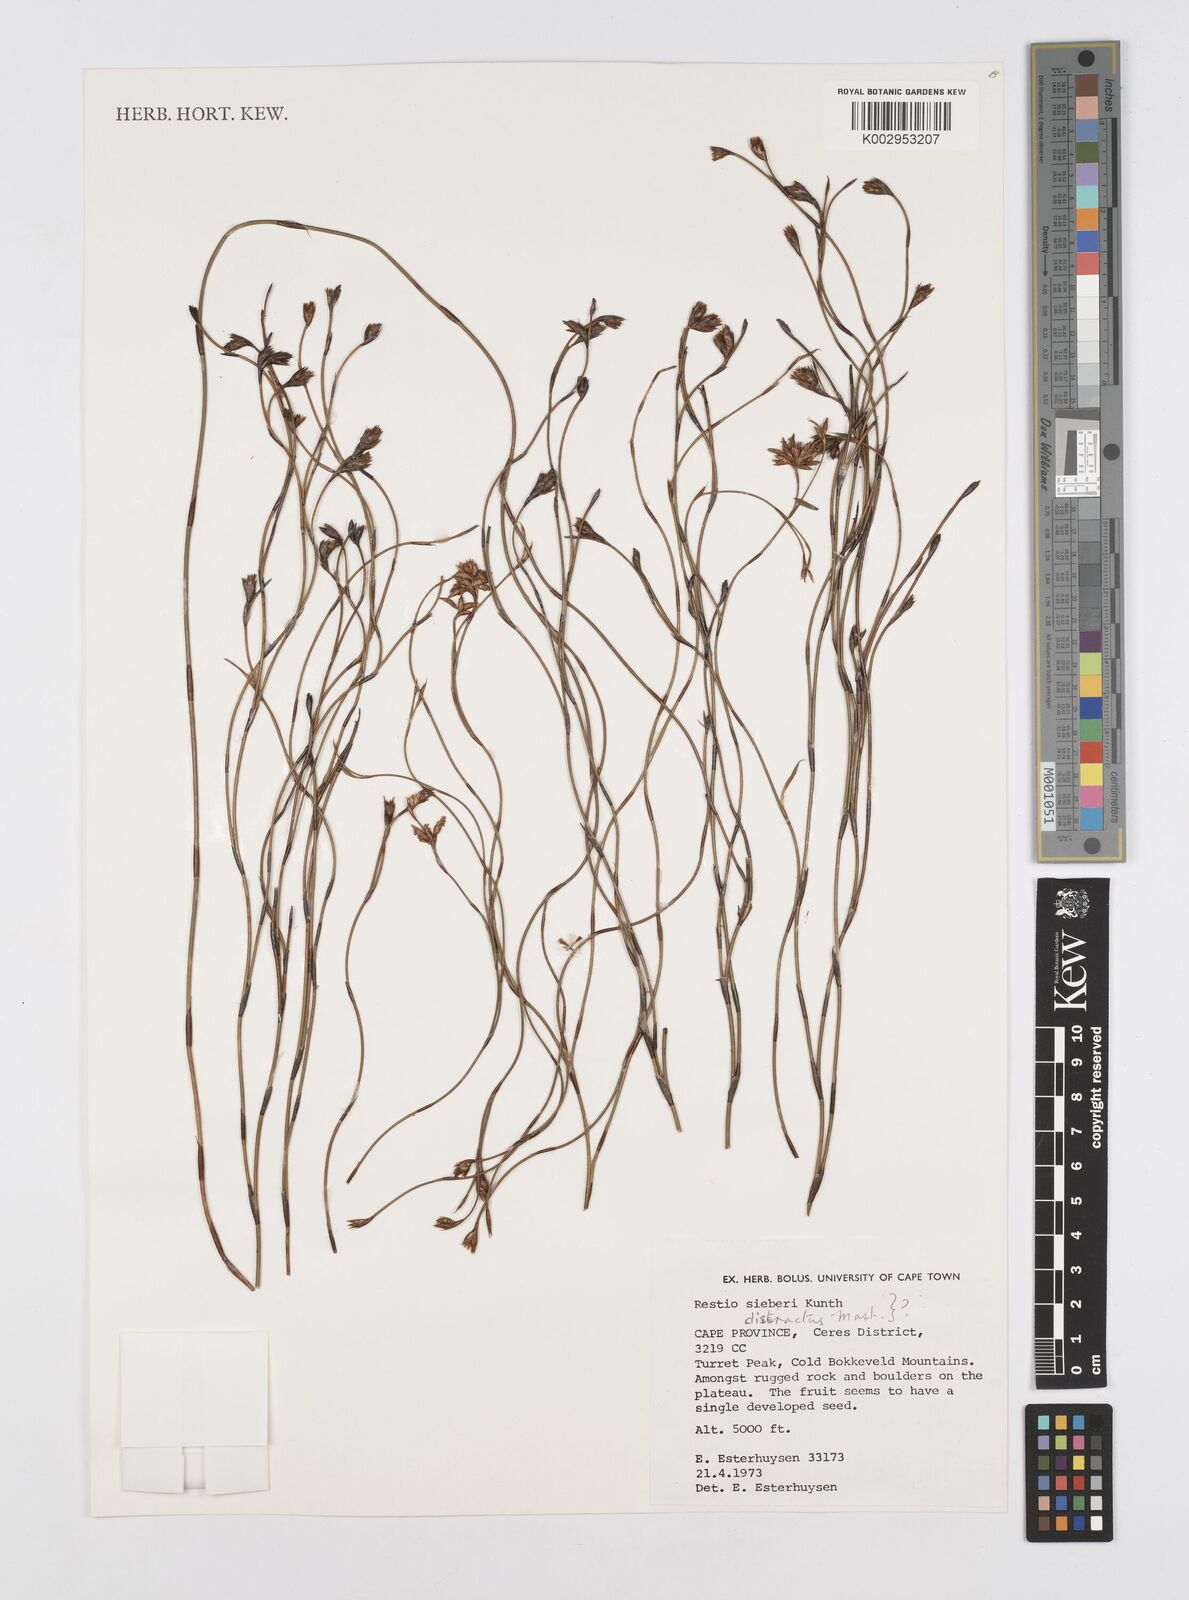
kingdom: Plantae
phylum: Tracheophyta
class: Liliopsida
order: Poales
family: Restionaceae
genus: Restio
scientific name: Restio
